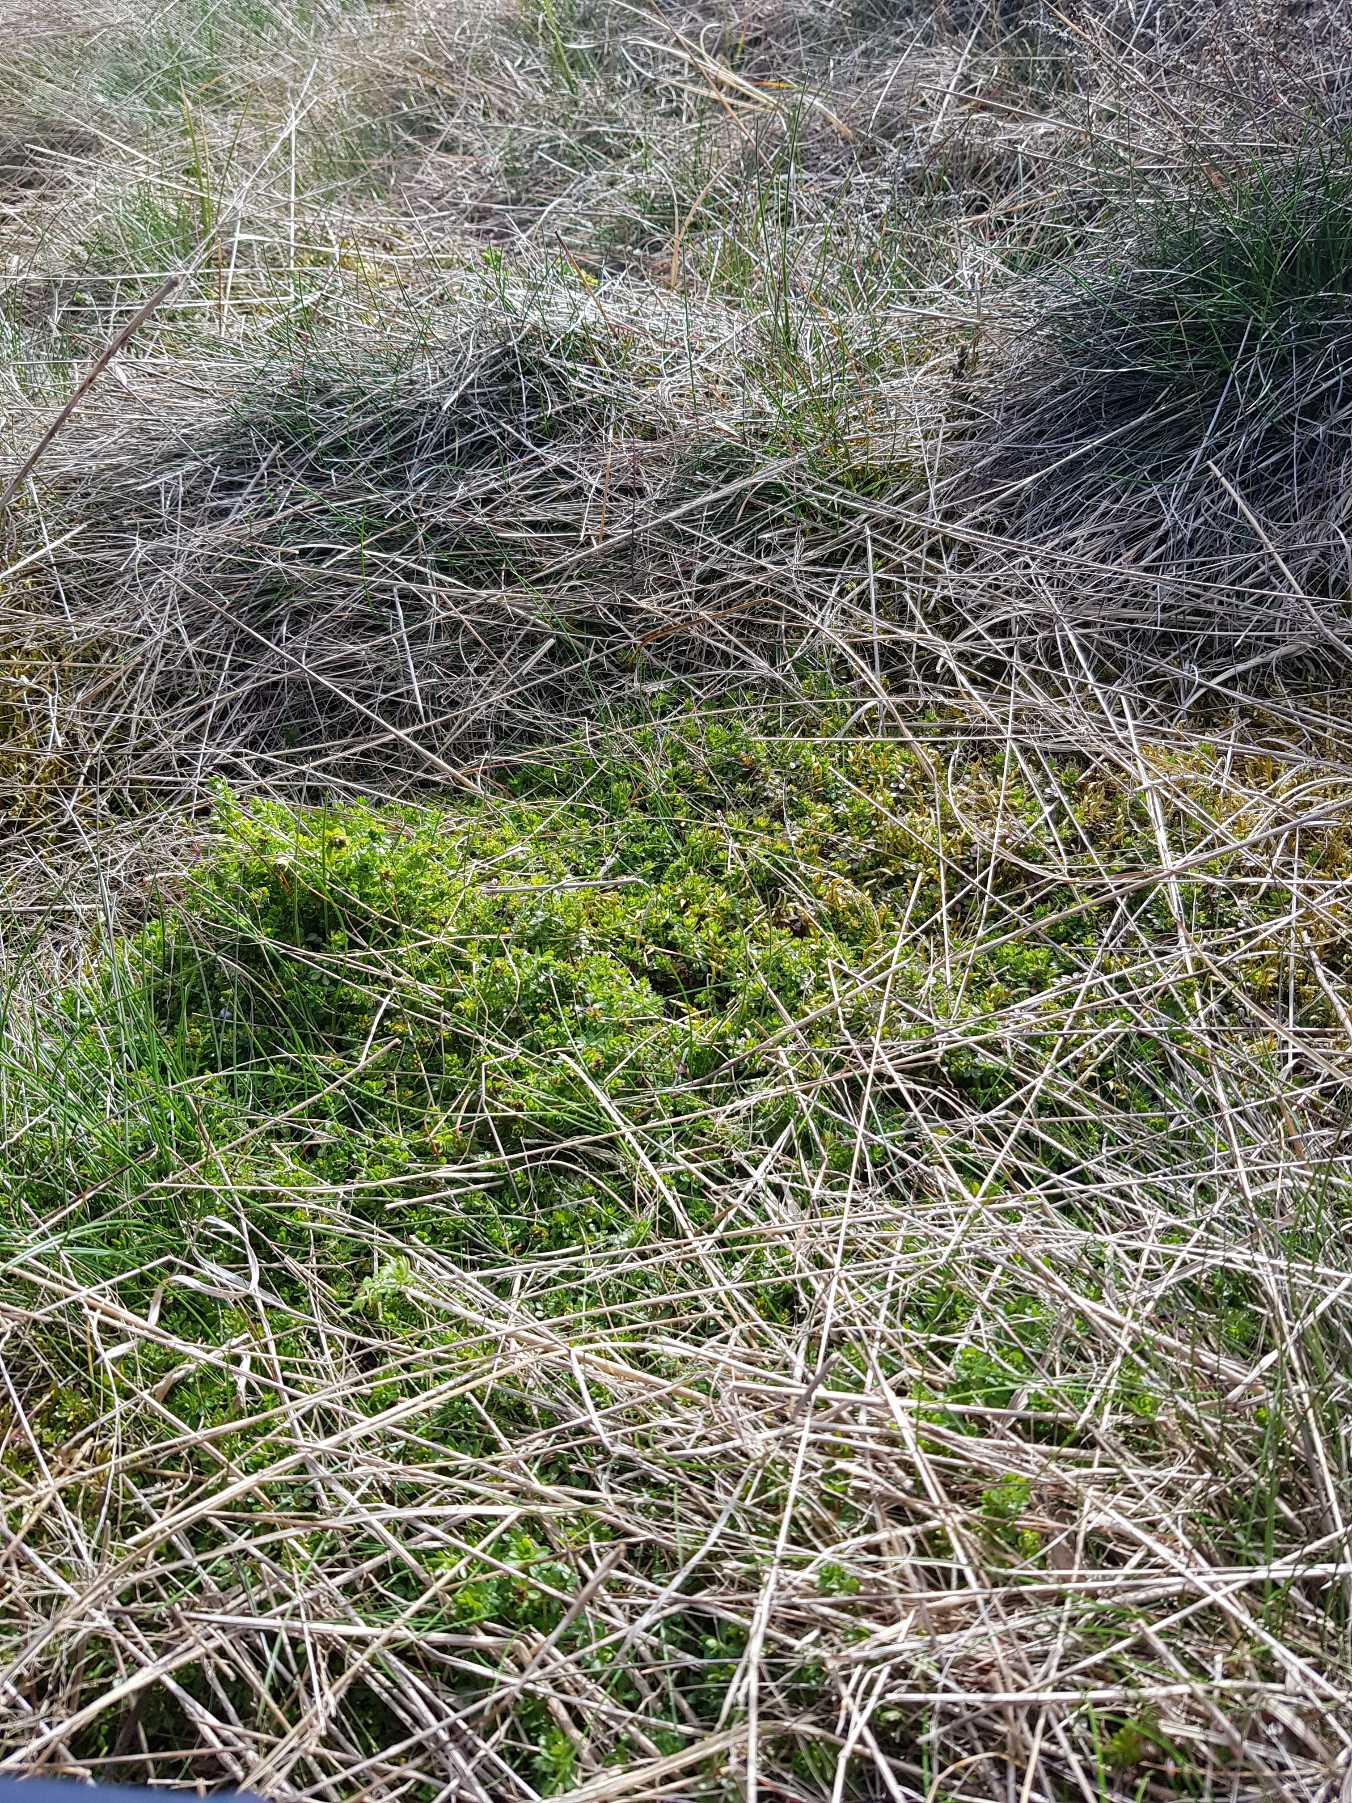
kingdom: Plantae
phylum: Tracheophyta
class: Magnoliopsida
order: Gentianales
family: Rubiaceae
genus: Galium
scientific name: Galium saxatile
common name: Lyng-snerre
